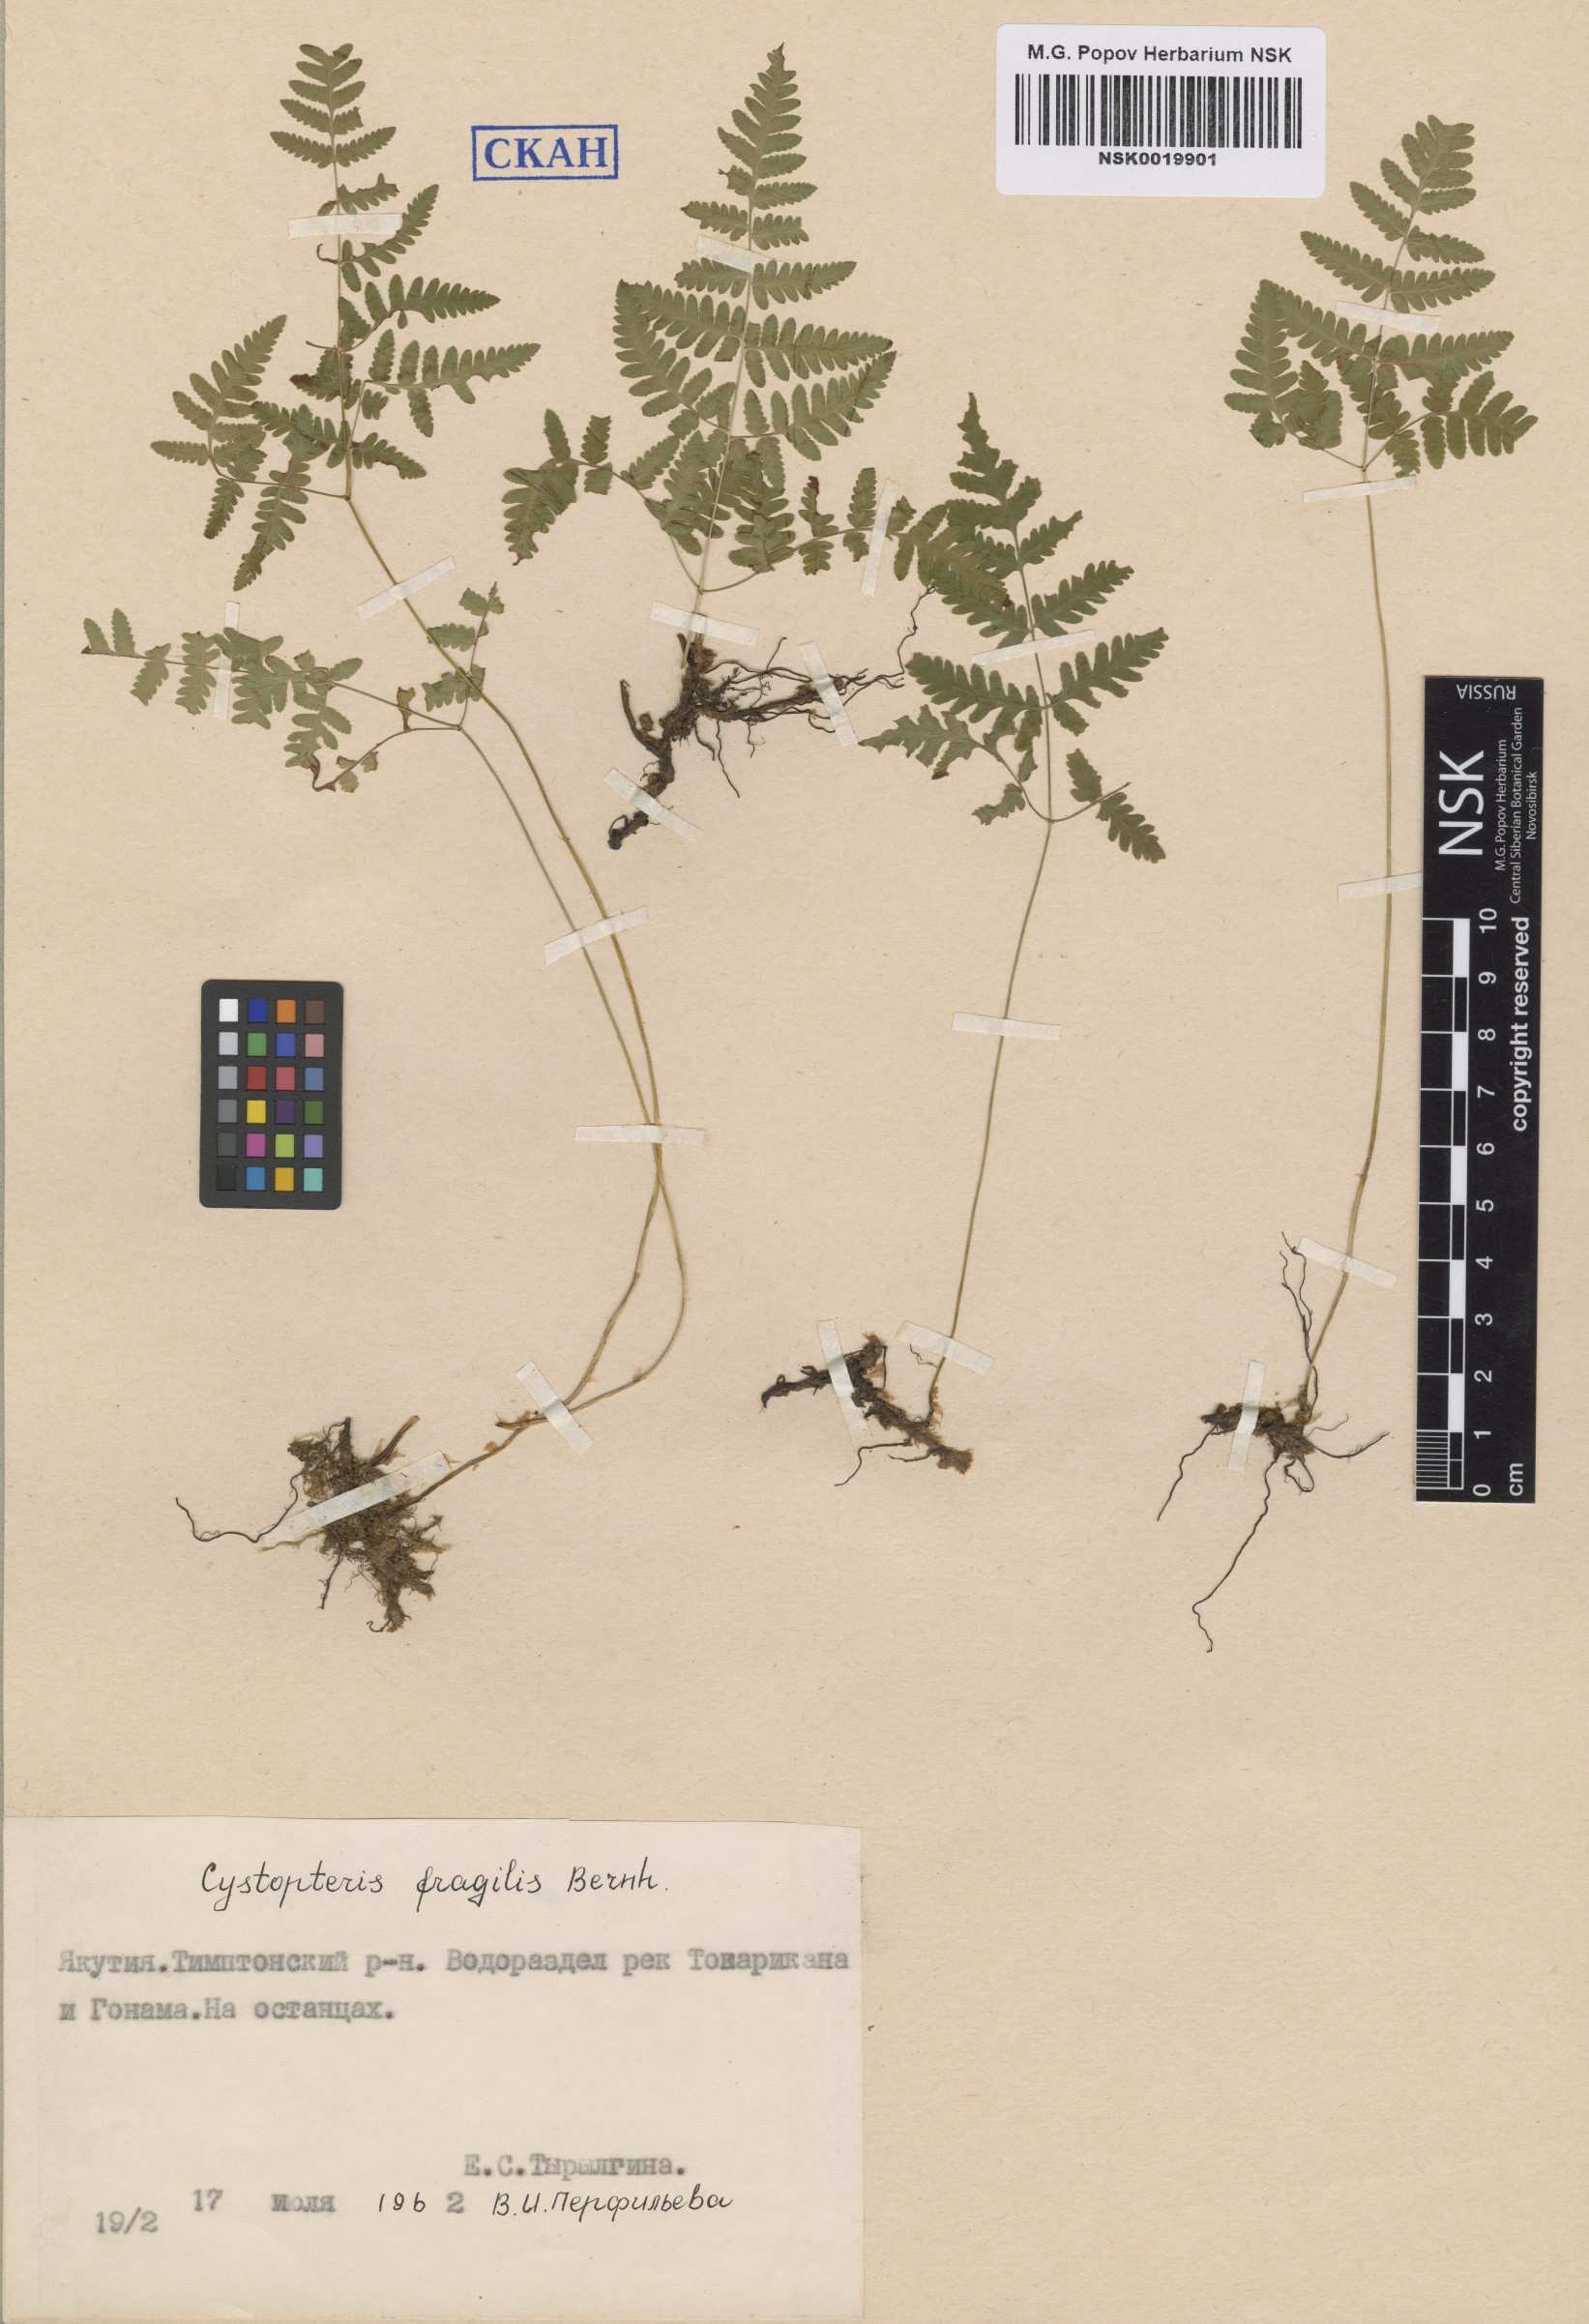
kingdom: Plantae
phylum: Tracheophyta
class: Polypodiopsida
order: Polypodiales
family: Cystopteridaceae
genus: Cystopteris
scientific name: Cystopteris fragilis
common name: Brittle bladder fern
